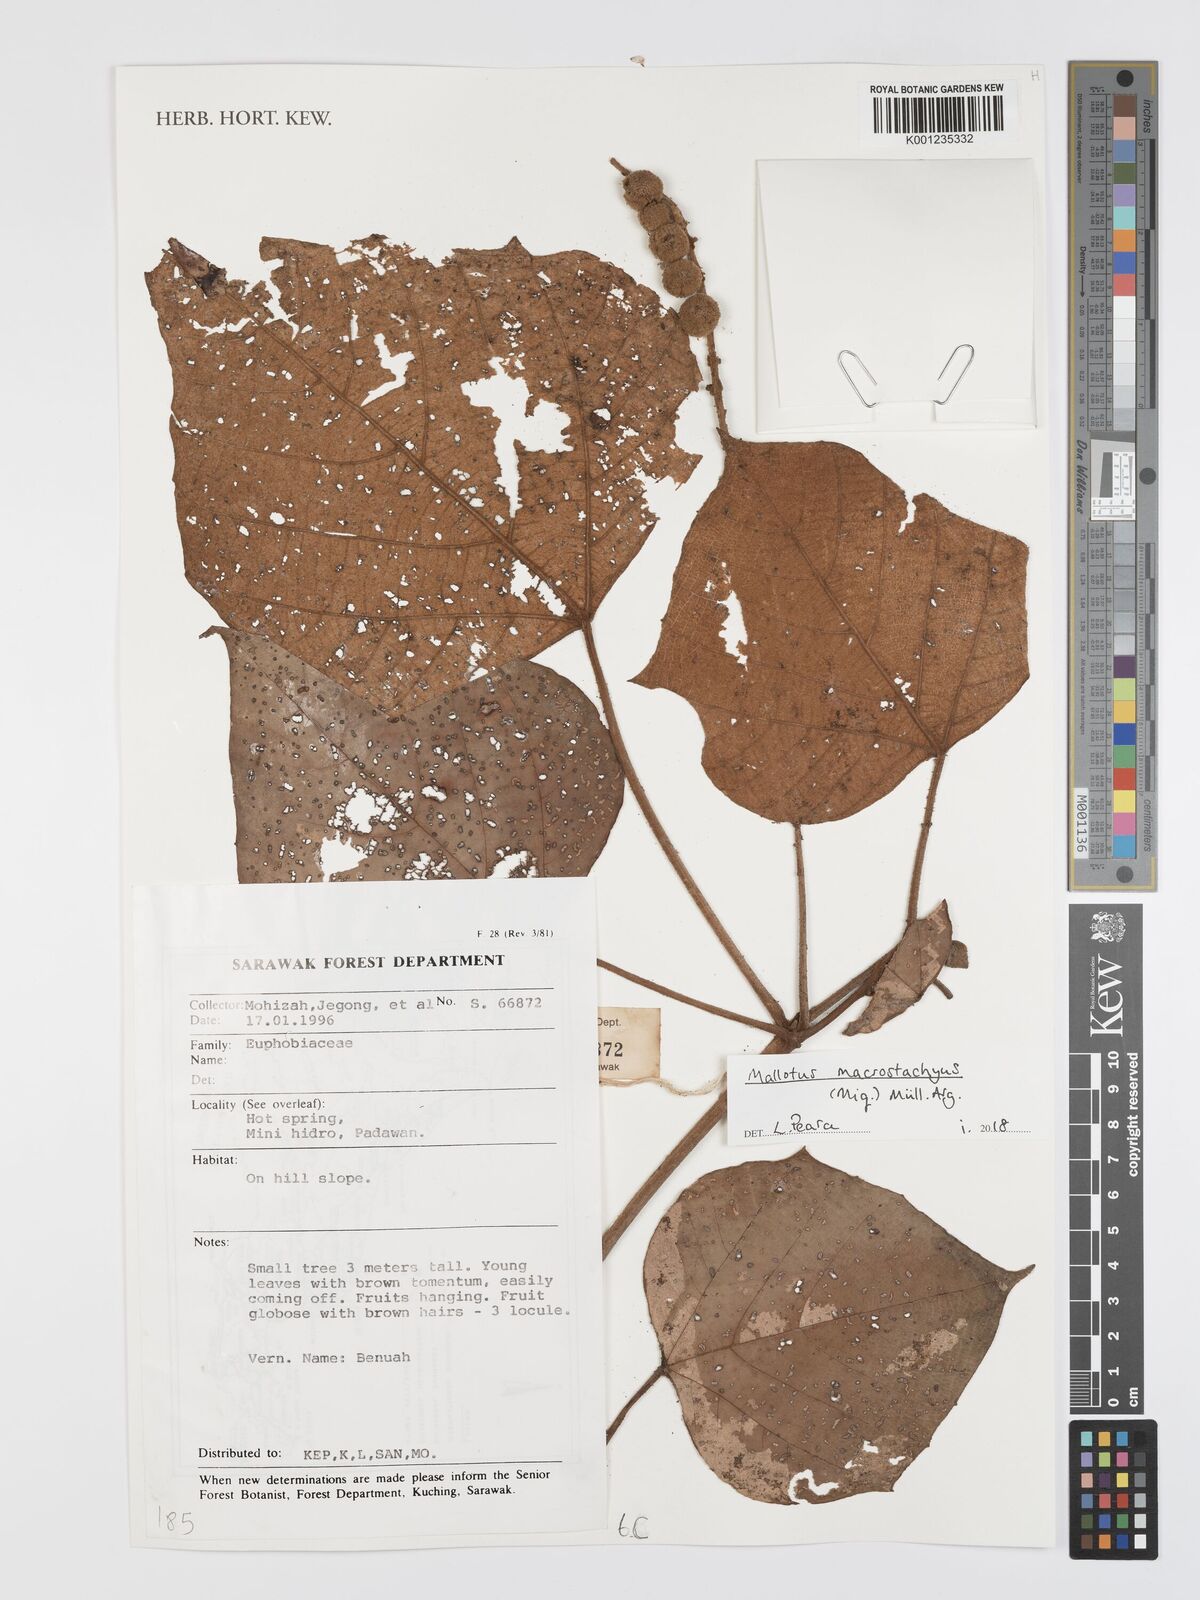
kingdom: Plantae
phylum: Tracheophyta
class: Magnoliopsida
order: Malpighiales
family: Euphorbiaceae
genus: Mallotus
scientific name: Mallotus macrostachyus
